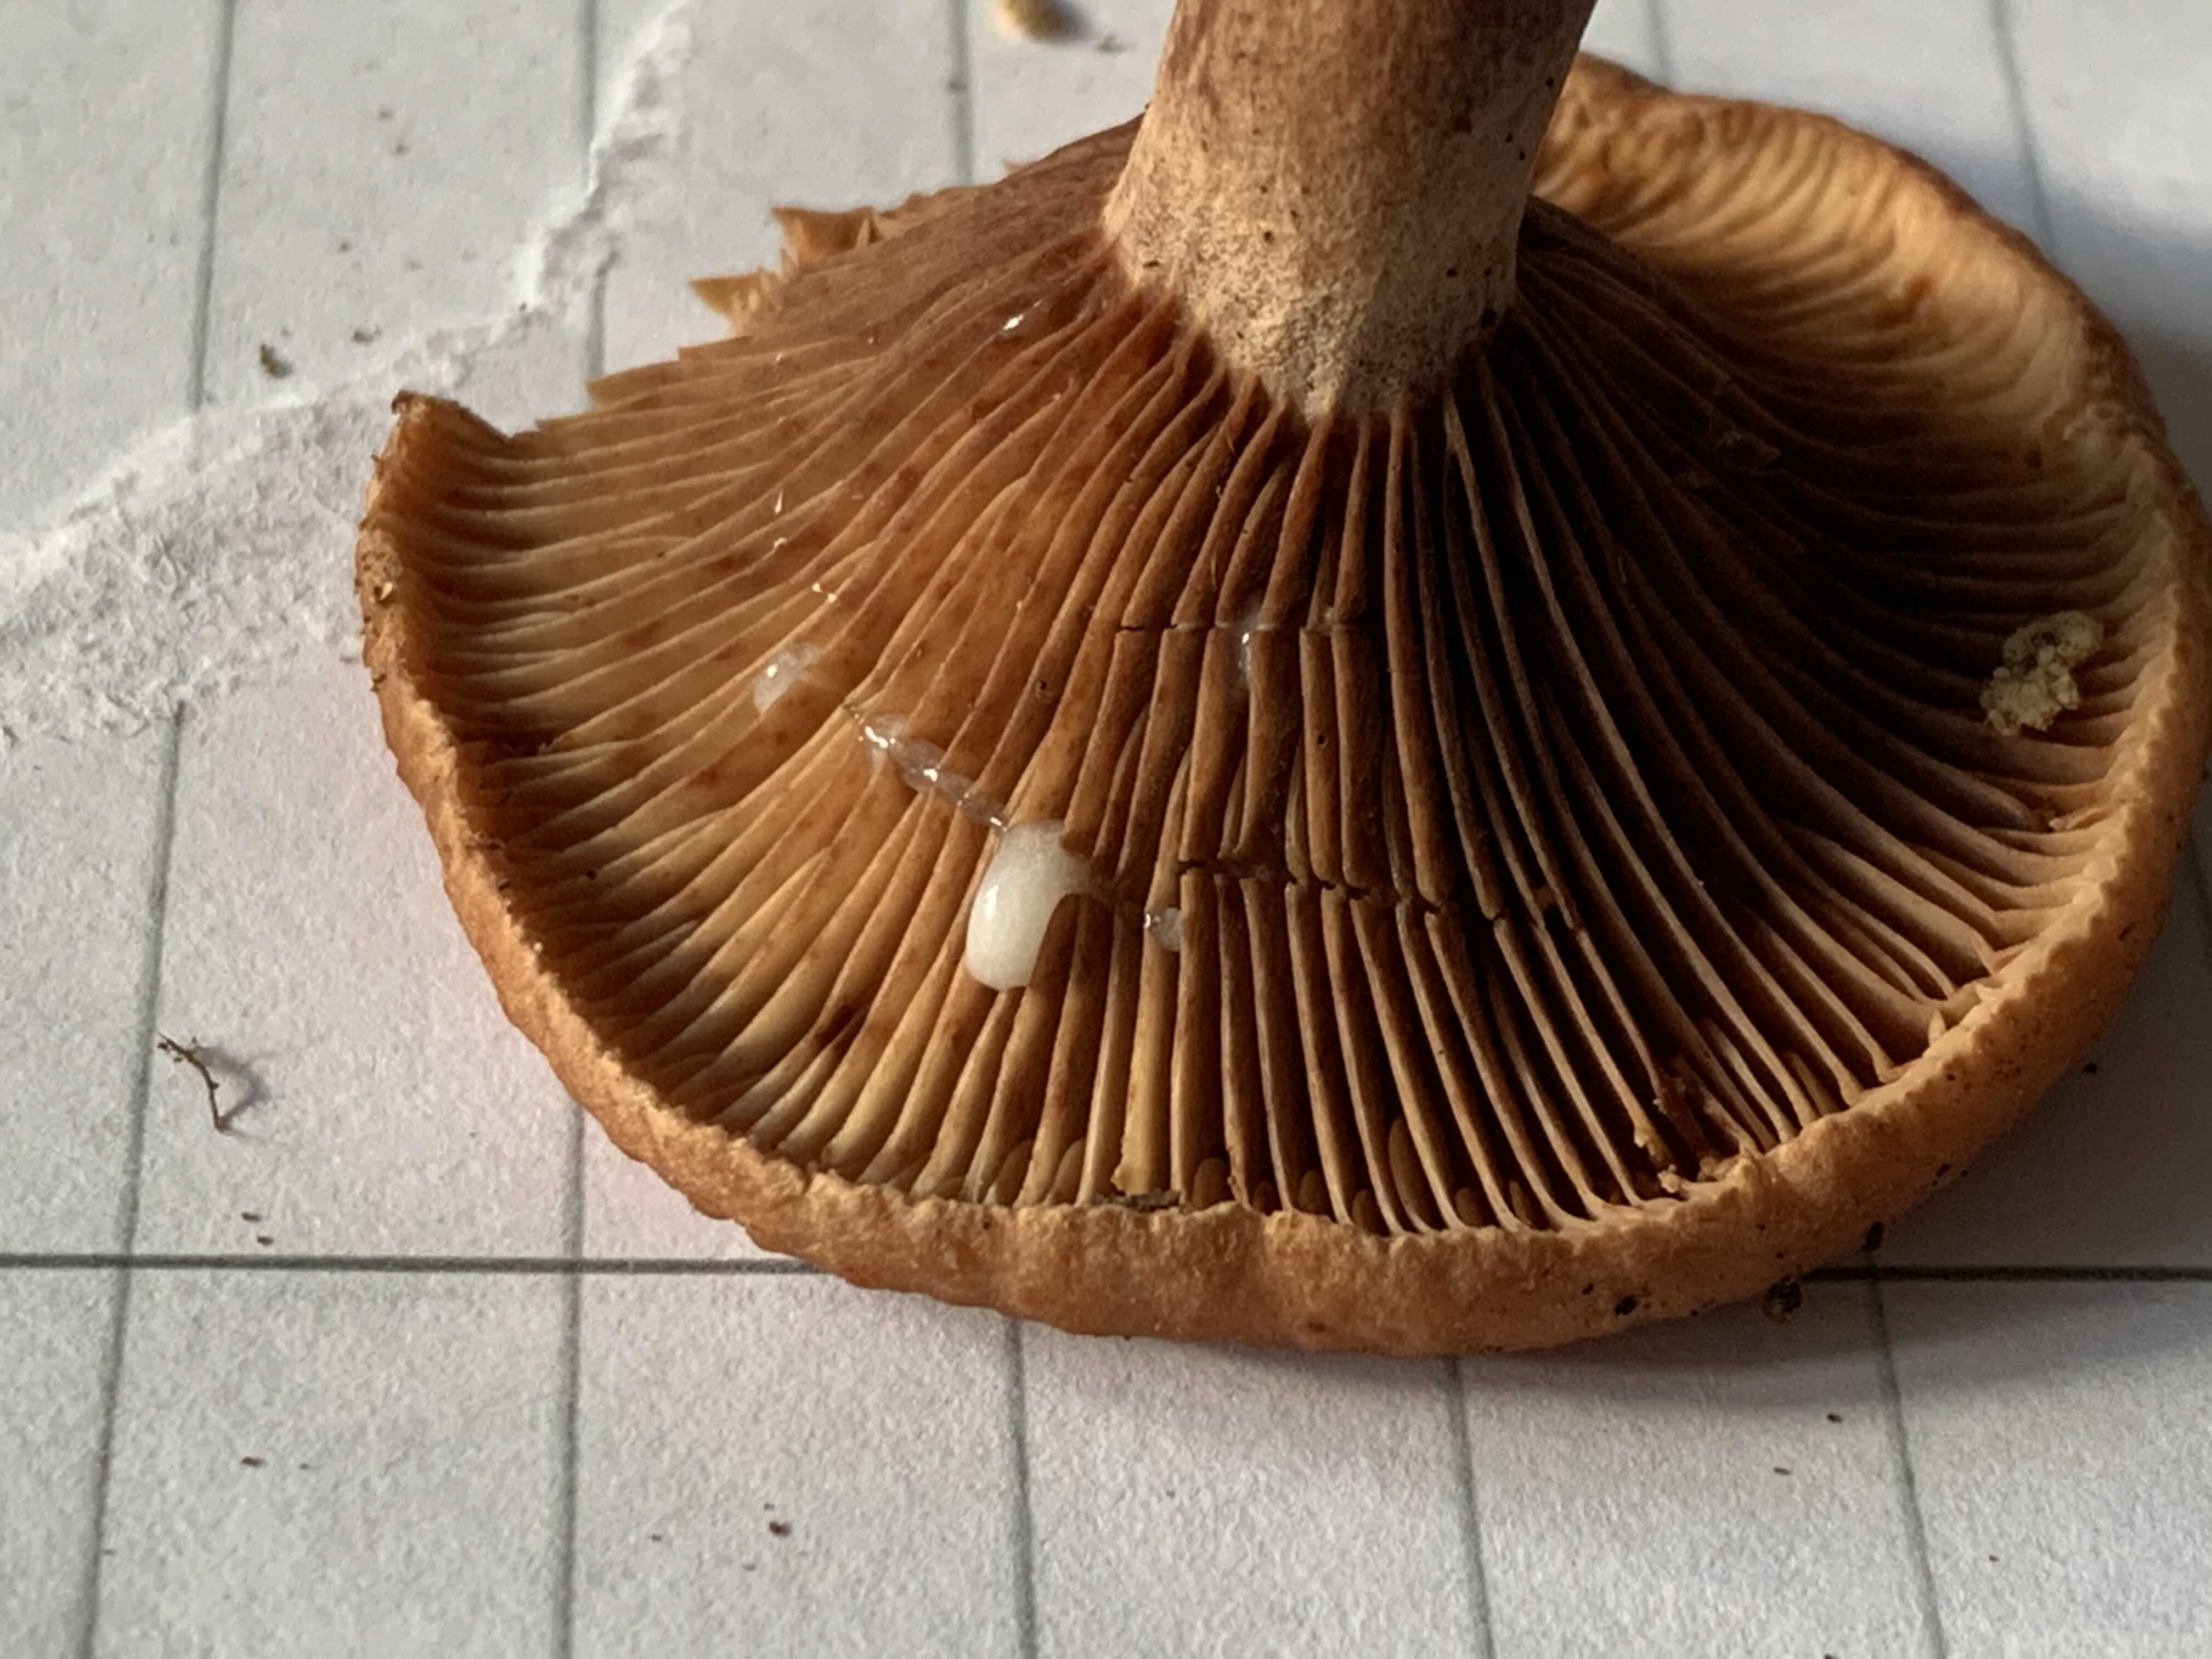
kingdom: Fungi
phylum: Basidiomycota
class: Agaricomycetes
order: Russulales
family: Russulaceae
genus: Lactarius
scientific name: Lactarius camphoratus
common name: kamfer-mælkehat
